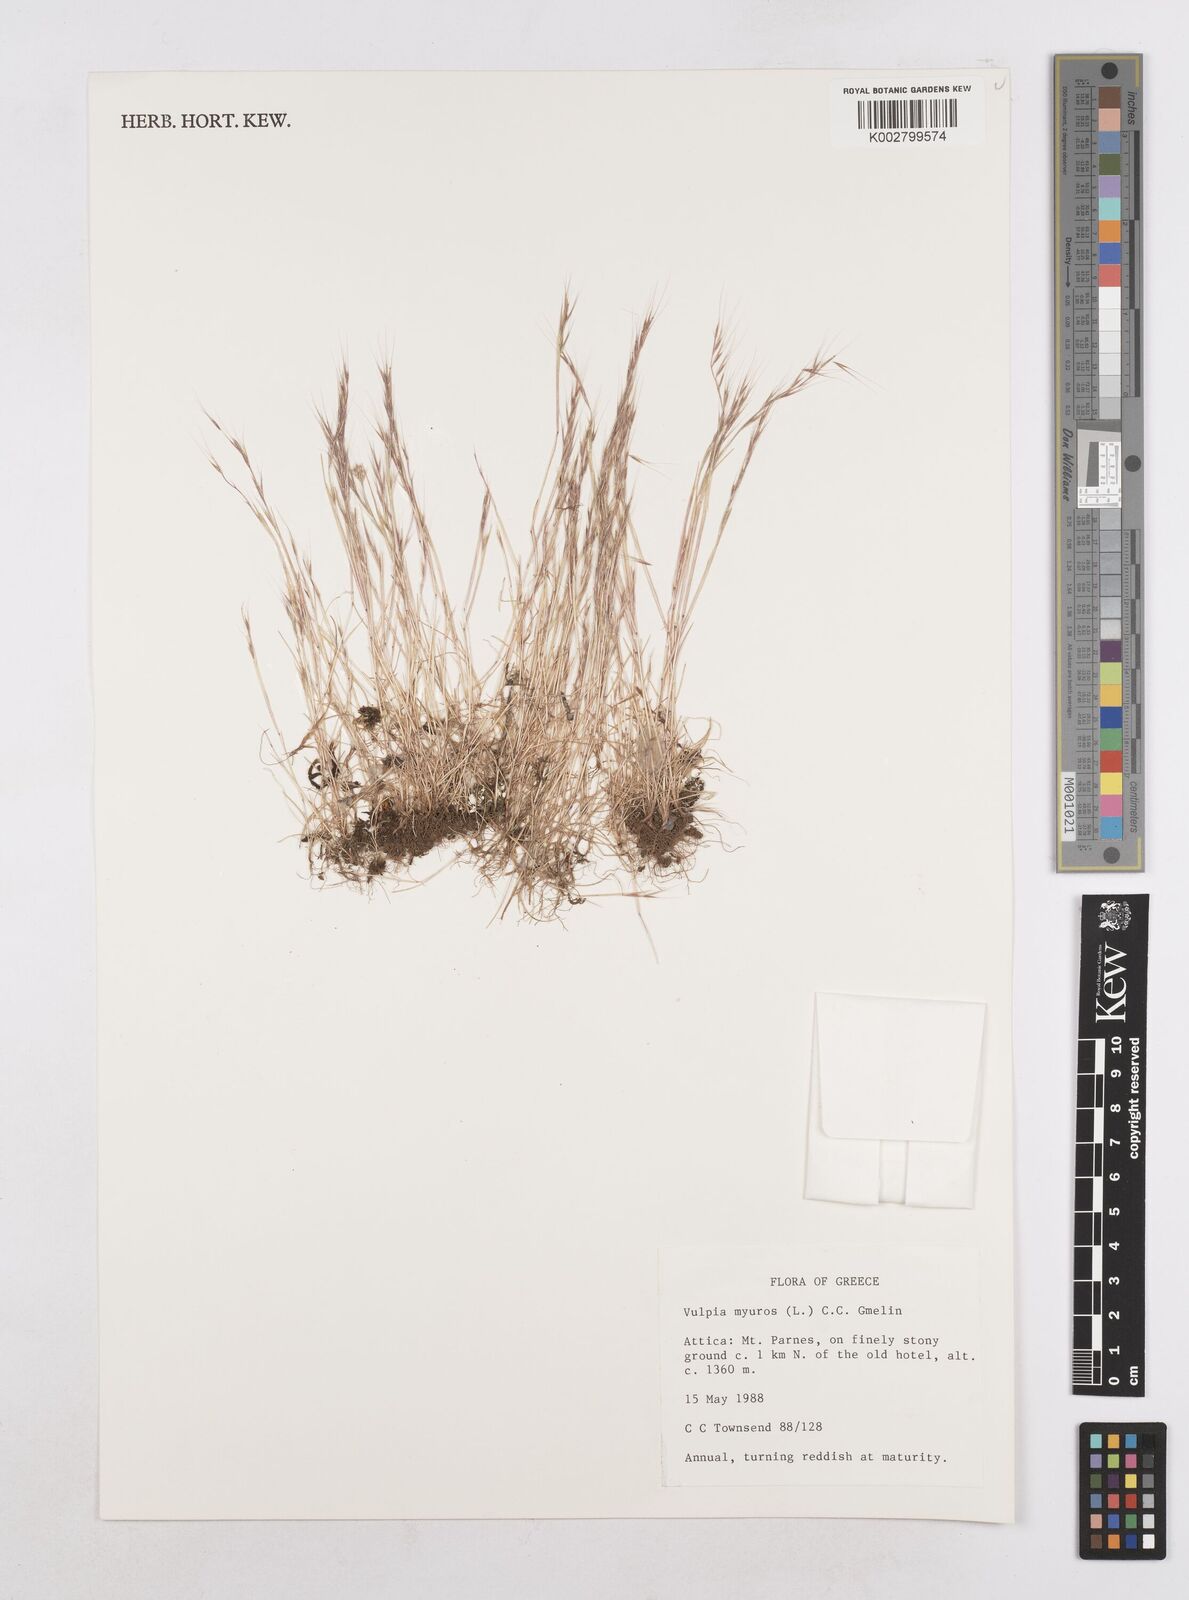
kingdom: Plantae
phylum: Tracheophyta
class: Liliopsida
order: Poales
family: Poaceae
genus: Festuca
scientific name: Festuca myuros
